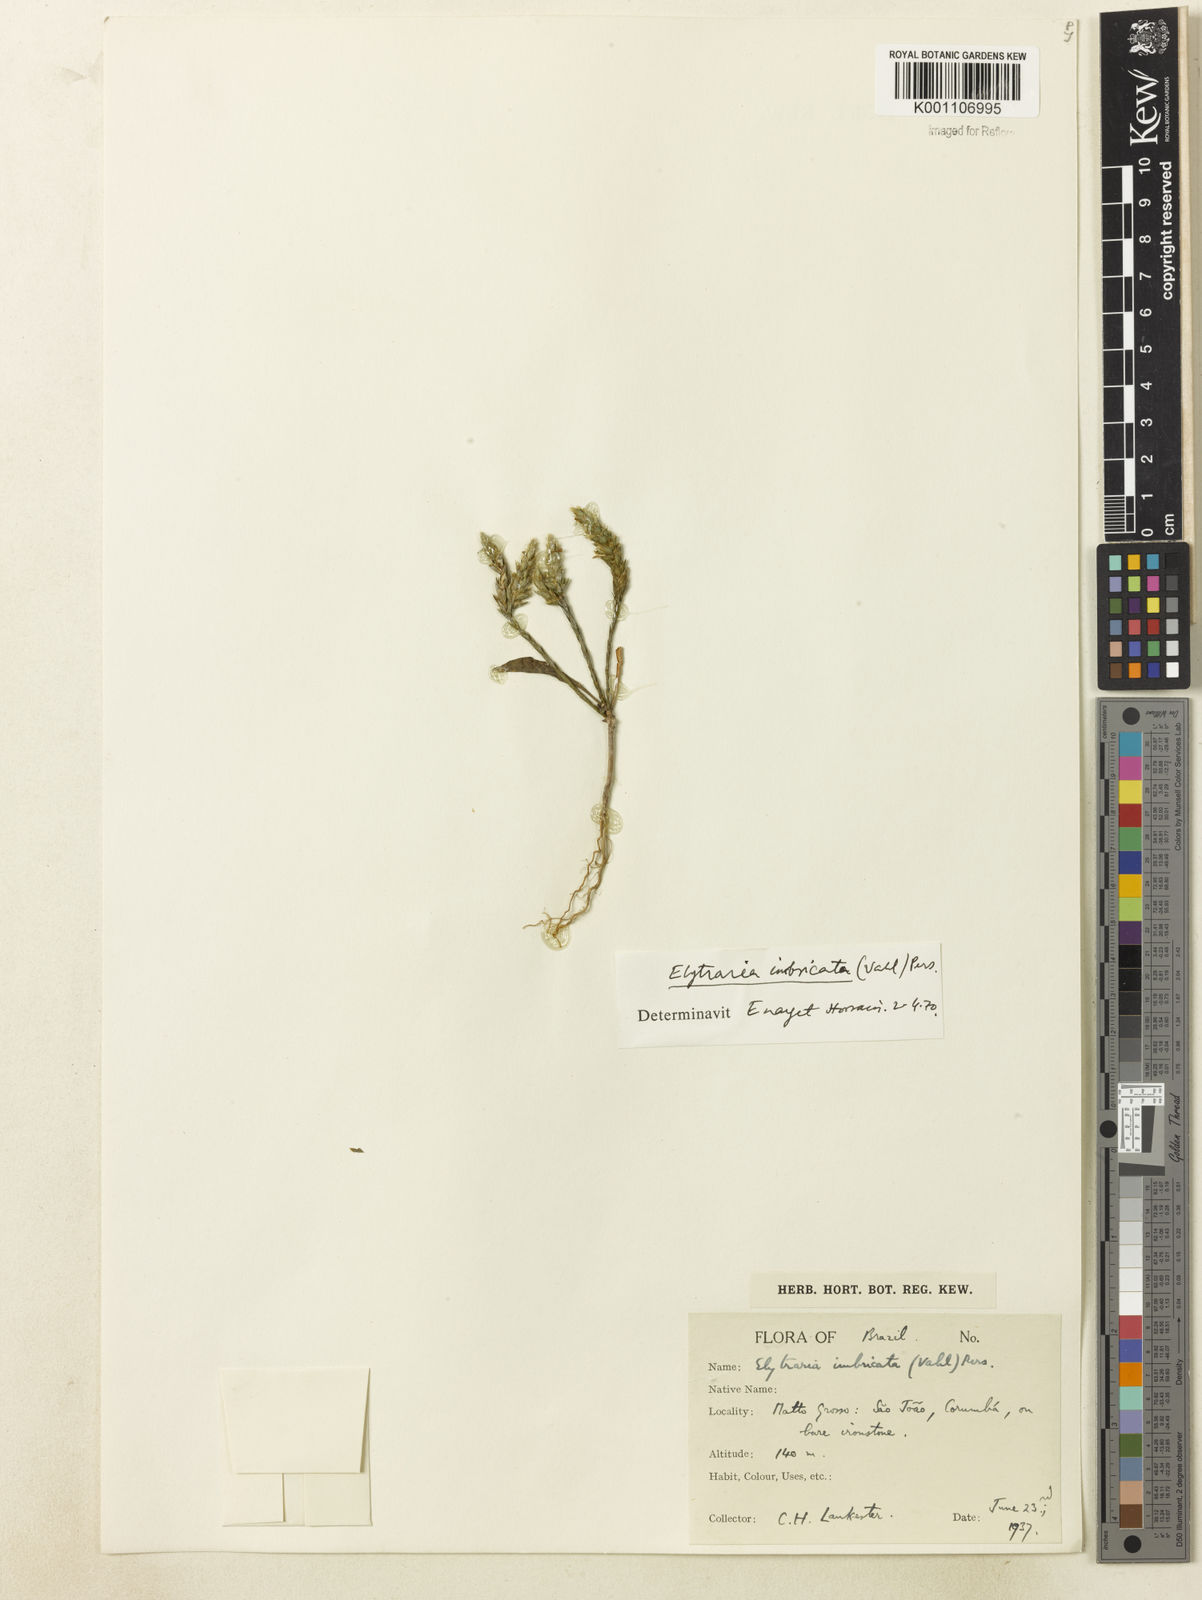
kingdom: Plantae
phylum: Tracheophyta
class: Magnoliopsida
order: Lamiales
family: Acanthaceae
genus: Elytraria
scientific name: Elytraria imbricata
